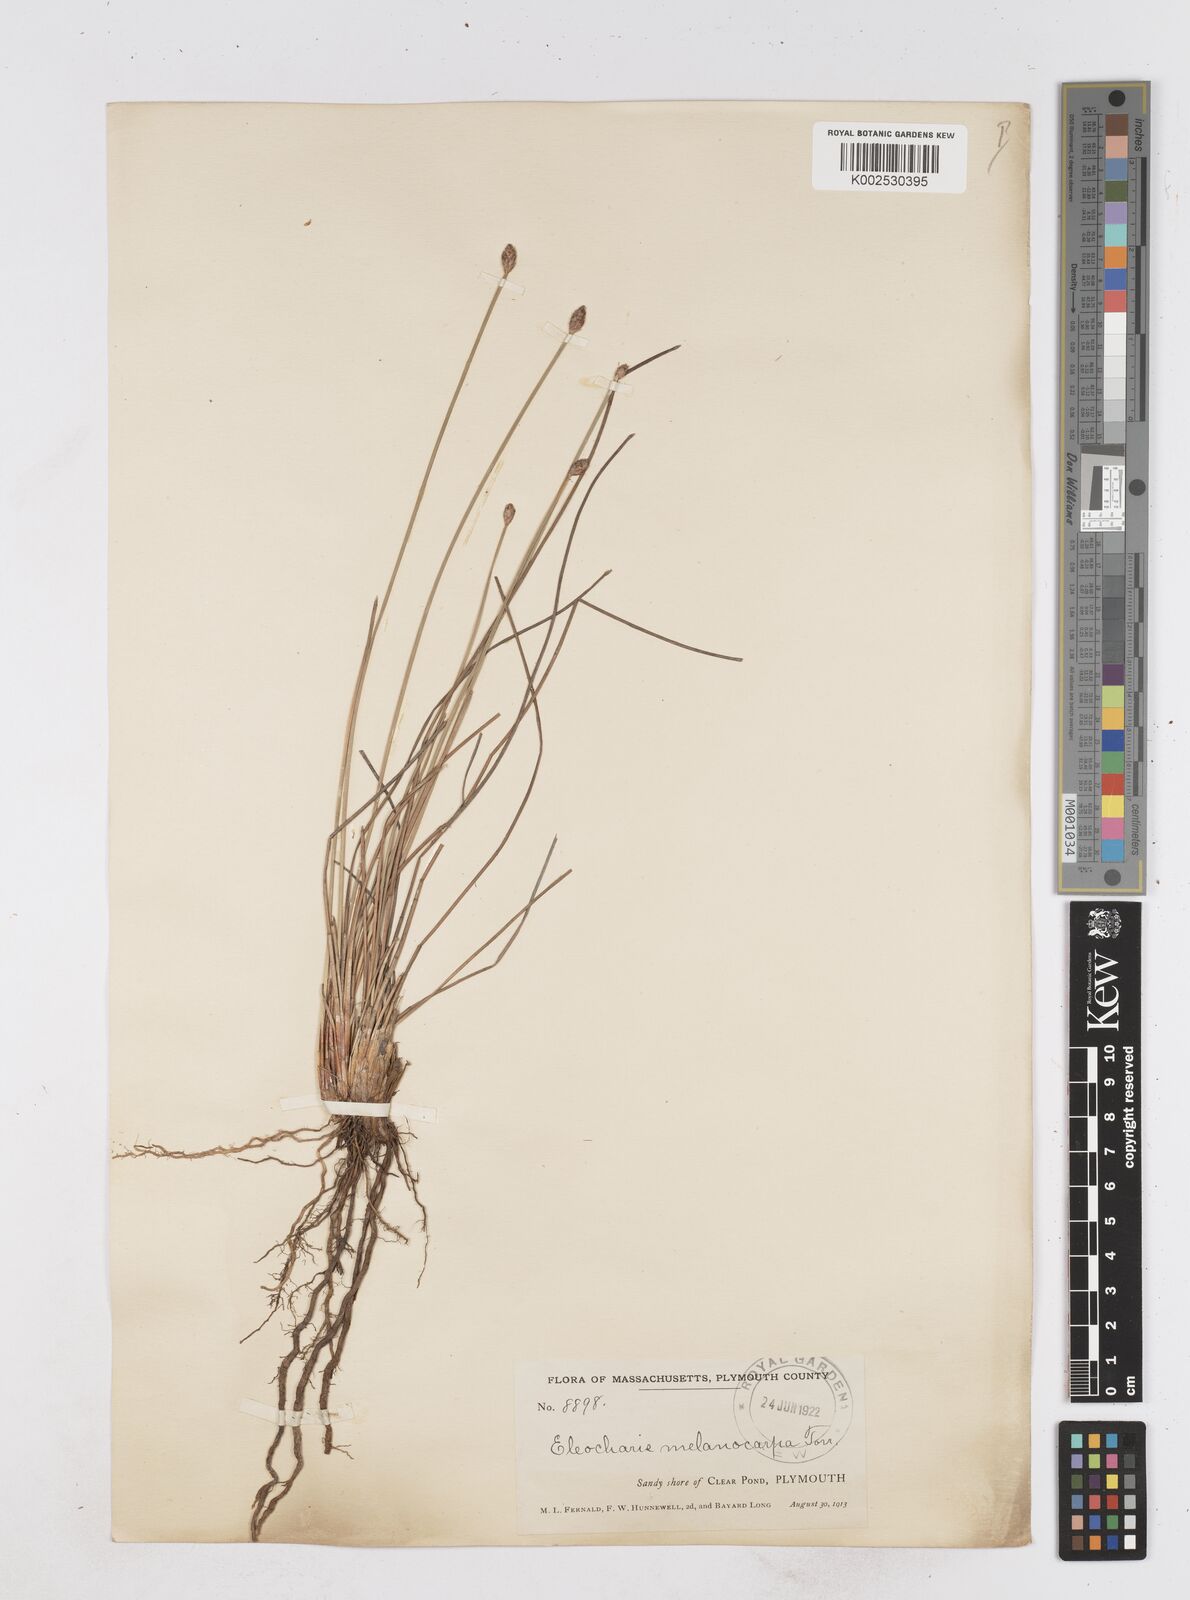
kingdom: Plantae
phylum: Tracheophyta
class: Liliopsida
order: Poales
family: Cyperaceae
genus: Eleocharis
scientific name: Eleocharis melanocarpa
